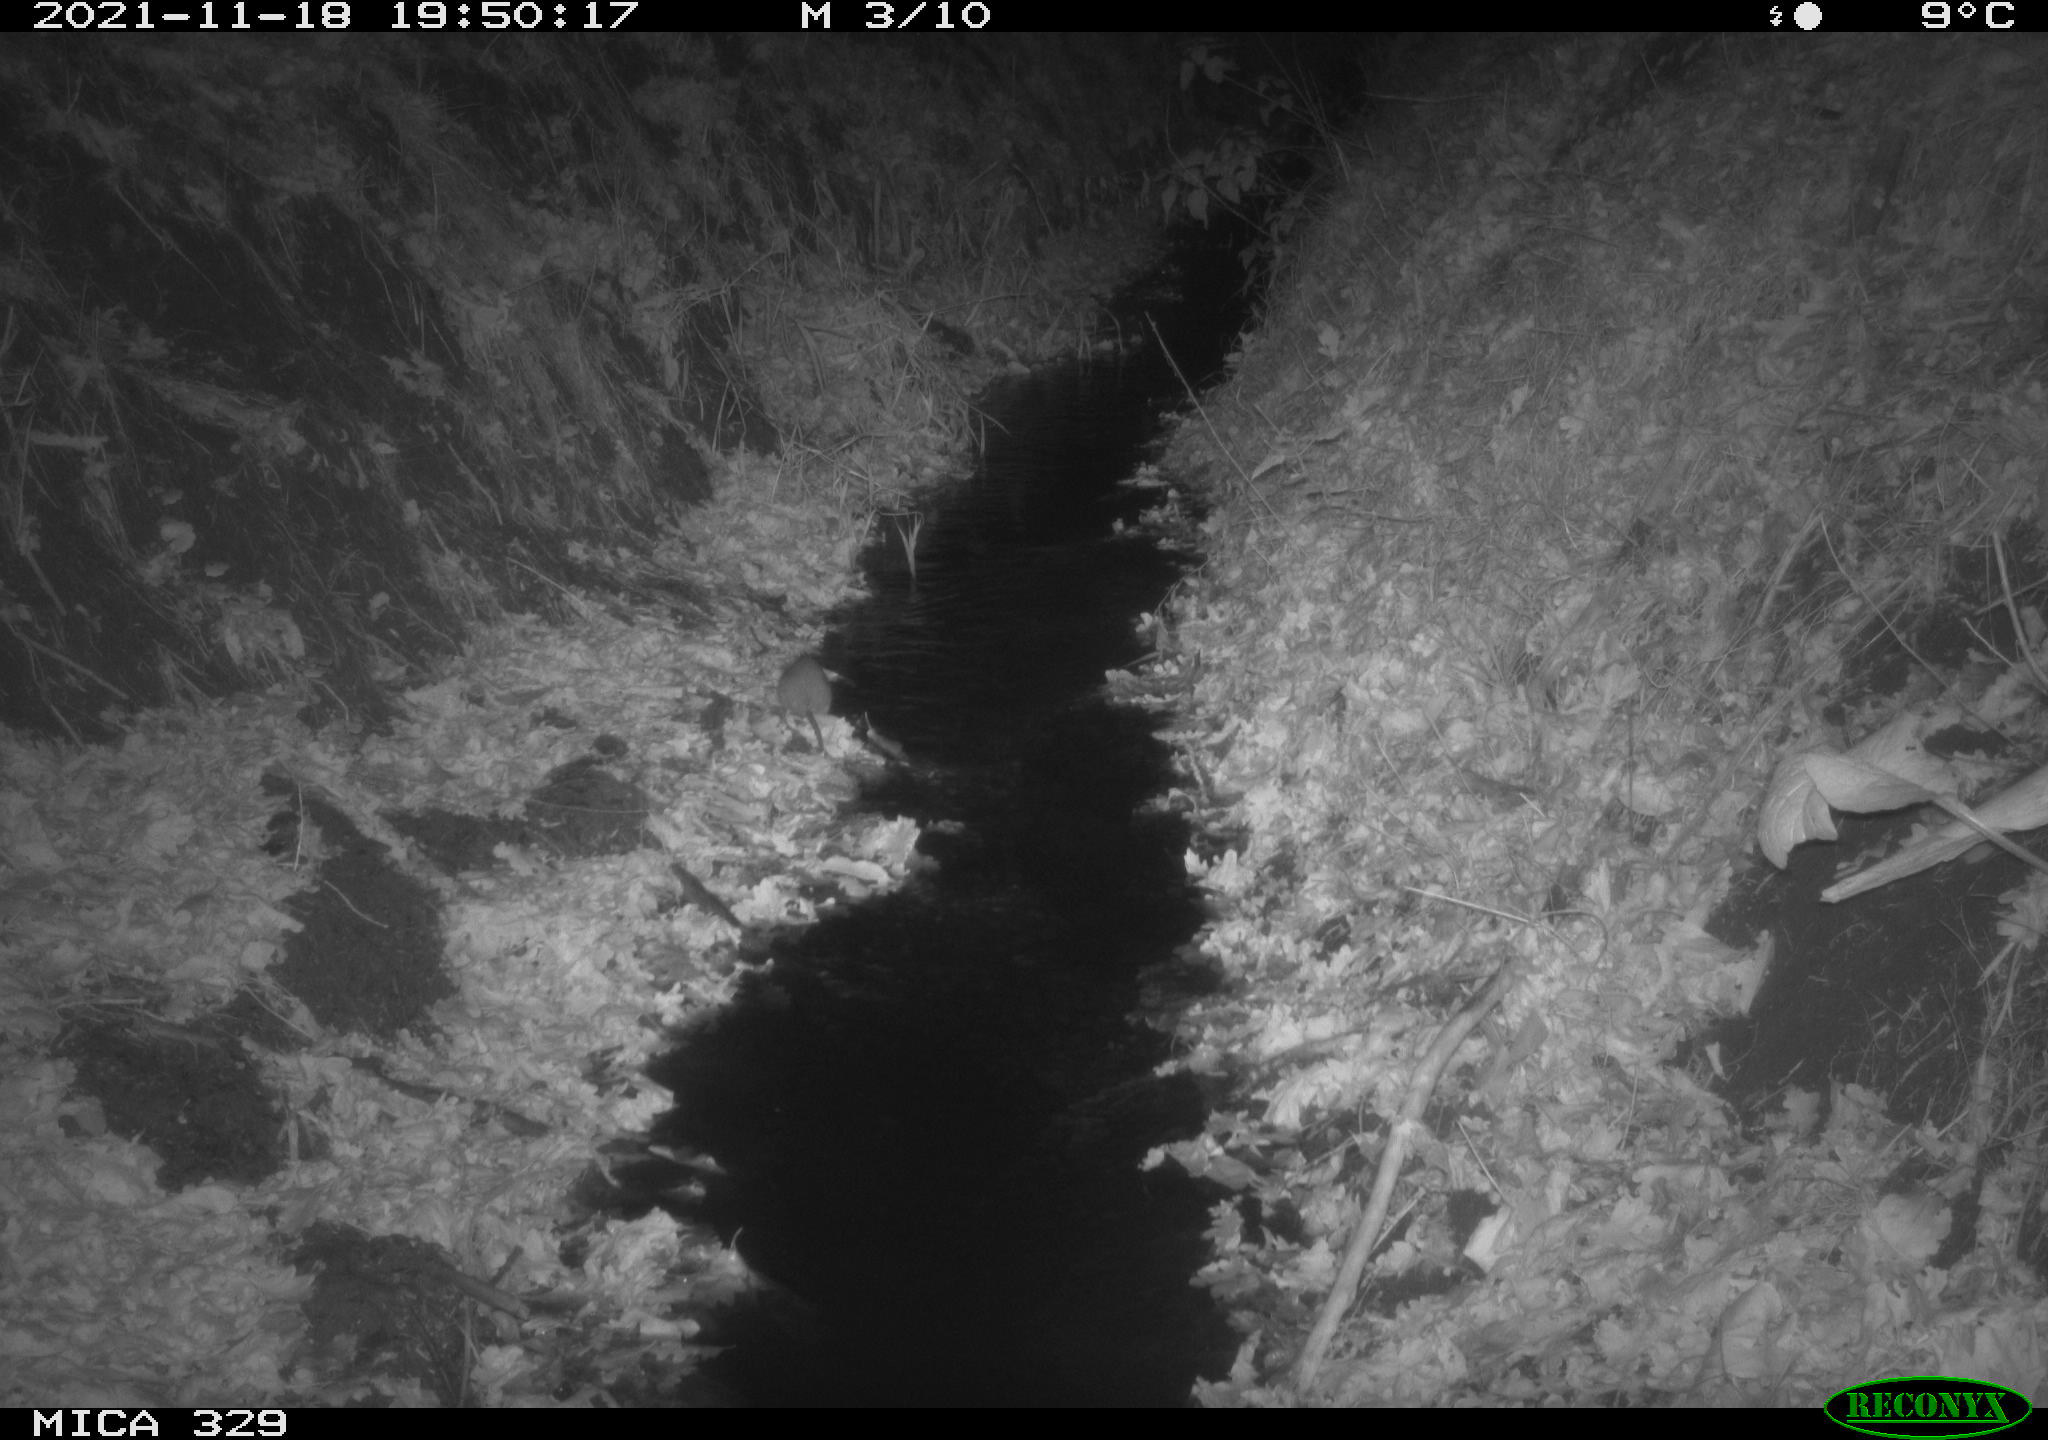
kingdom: Animalia
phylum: Chordata
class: Mammalia
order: Rodentia
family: Muridae
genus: Rattus
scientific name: Rattus norvegicus
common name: Brown rat
